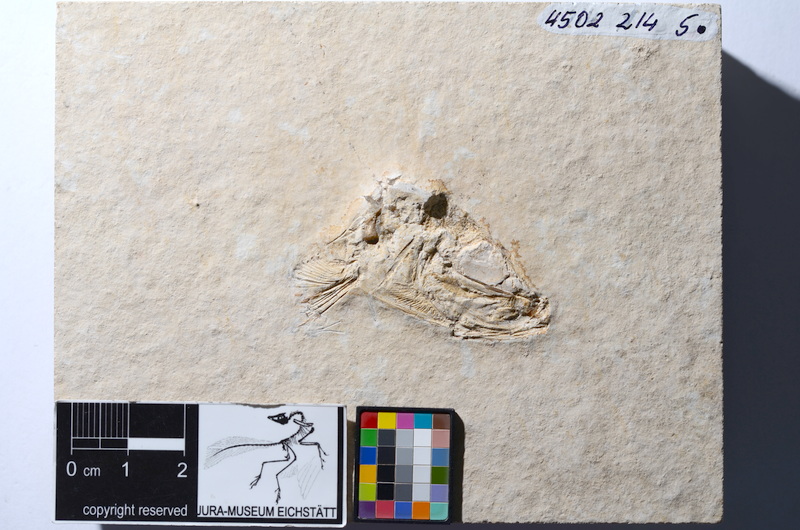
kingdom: Animalia
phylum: Chordata
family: Ascalaboidae
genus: Tharsis
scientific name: Tharsis dubius
